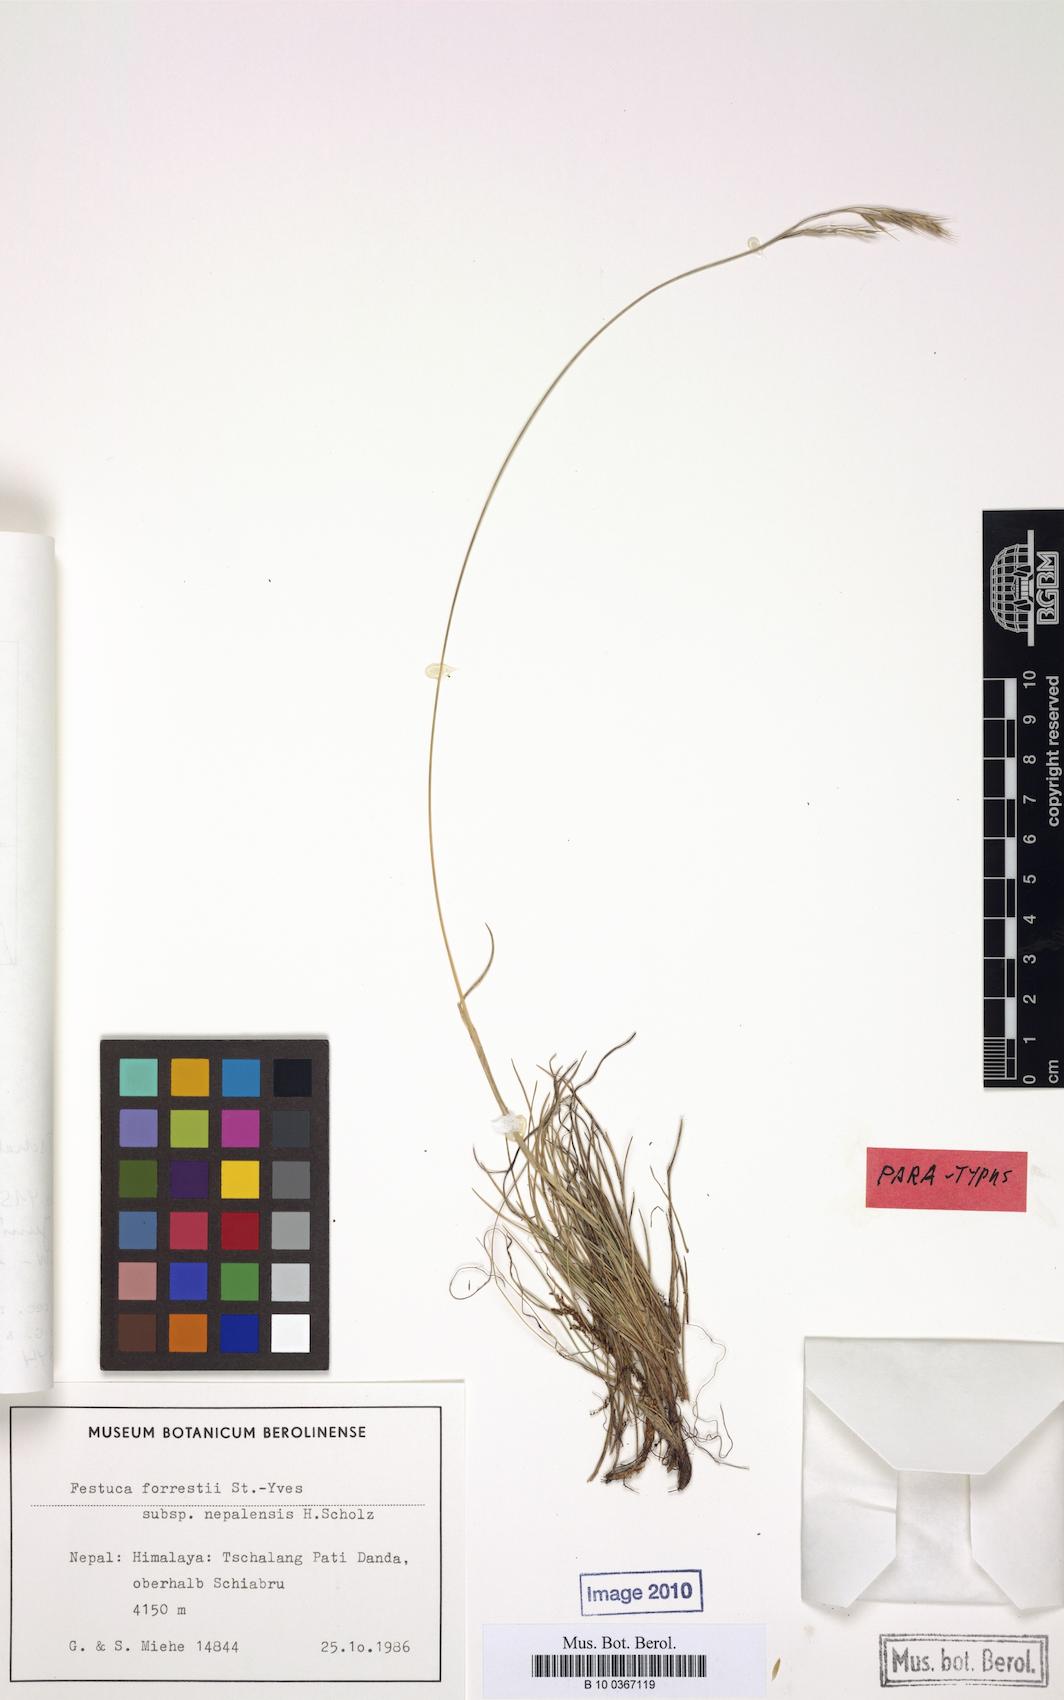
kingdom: Plantae
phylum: Tracheophyta
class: Liliopsida
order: Poales
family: Poaceae
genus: Festuca
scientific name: Festuca forrestii
